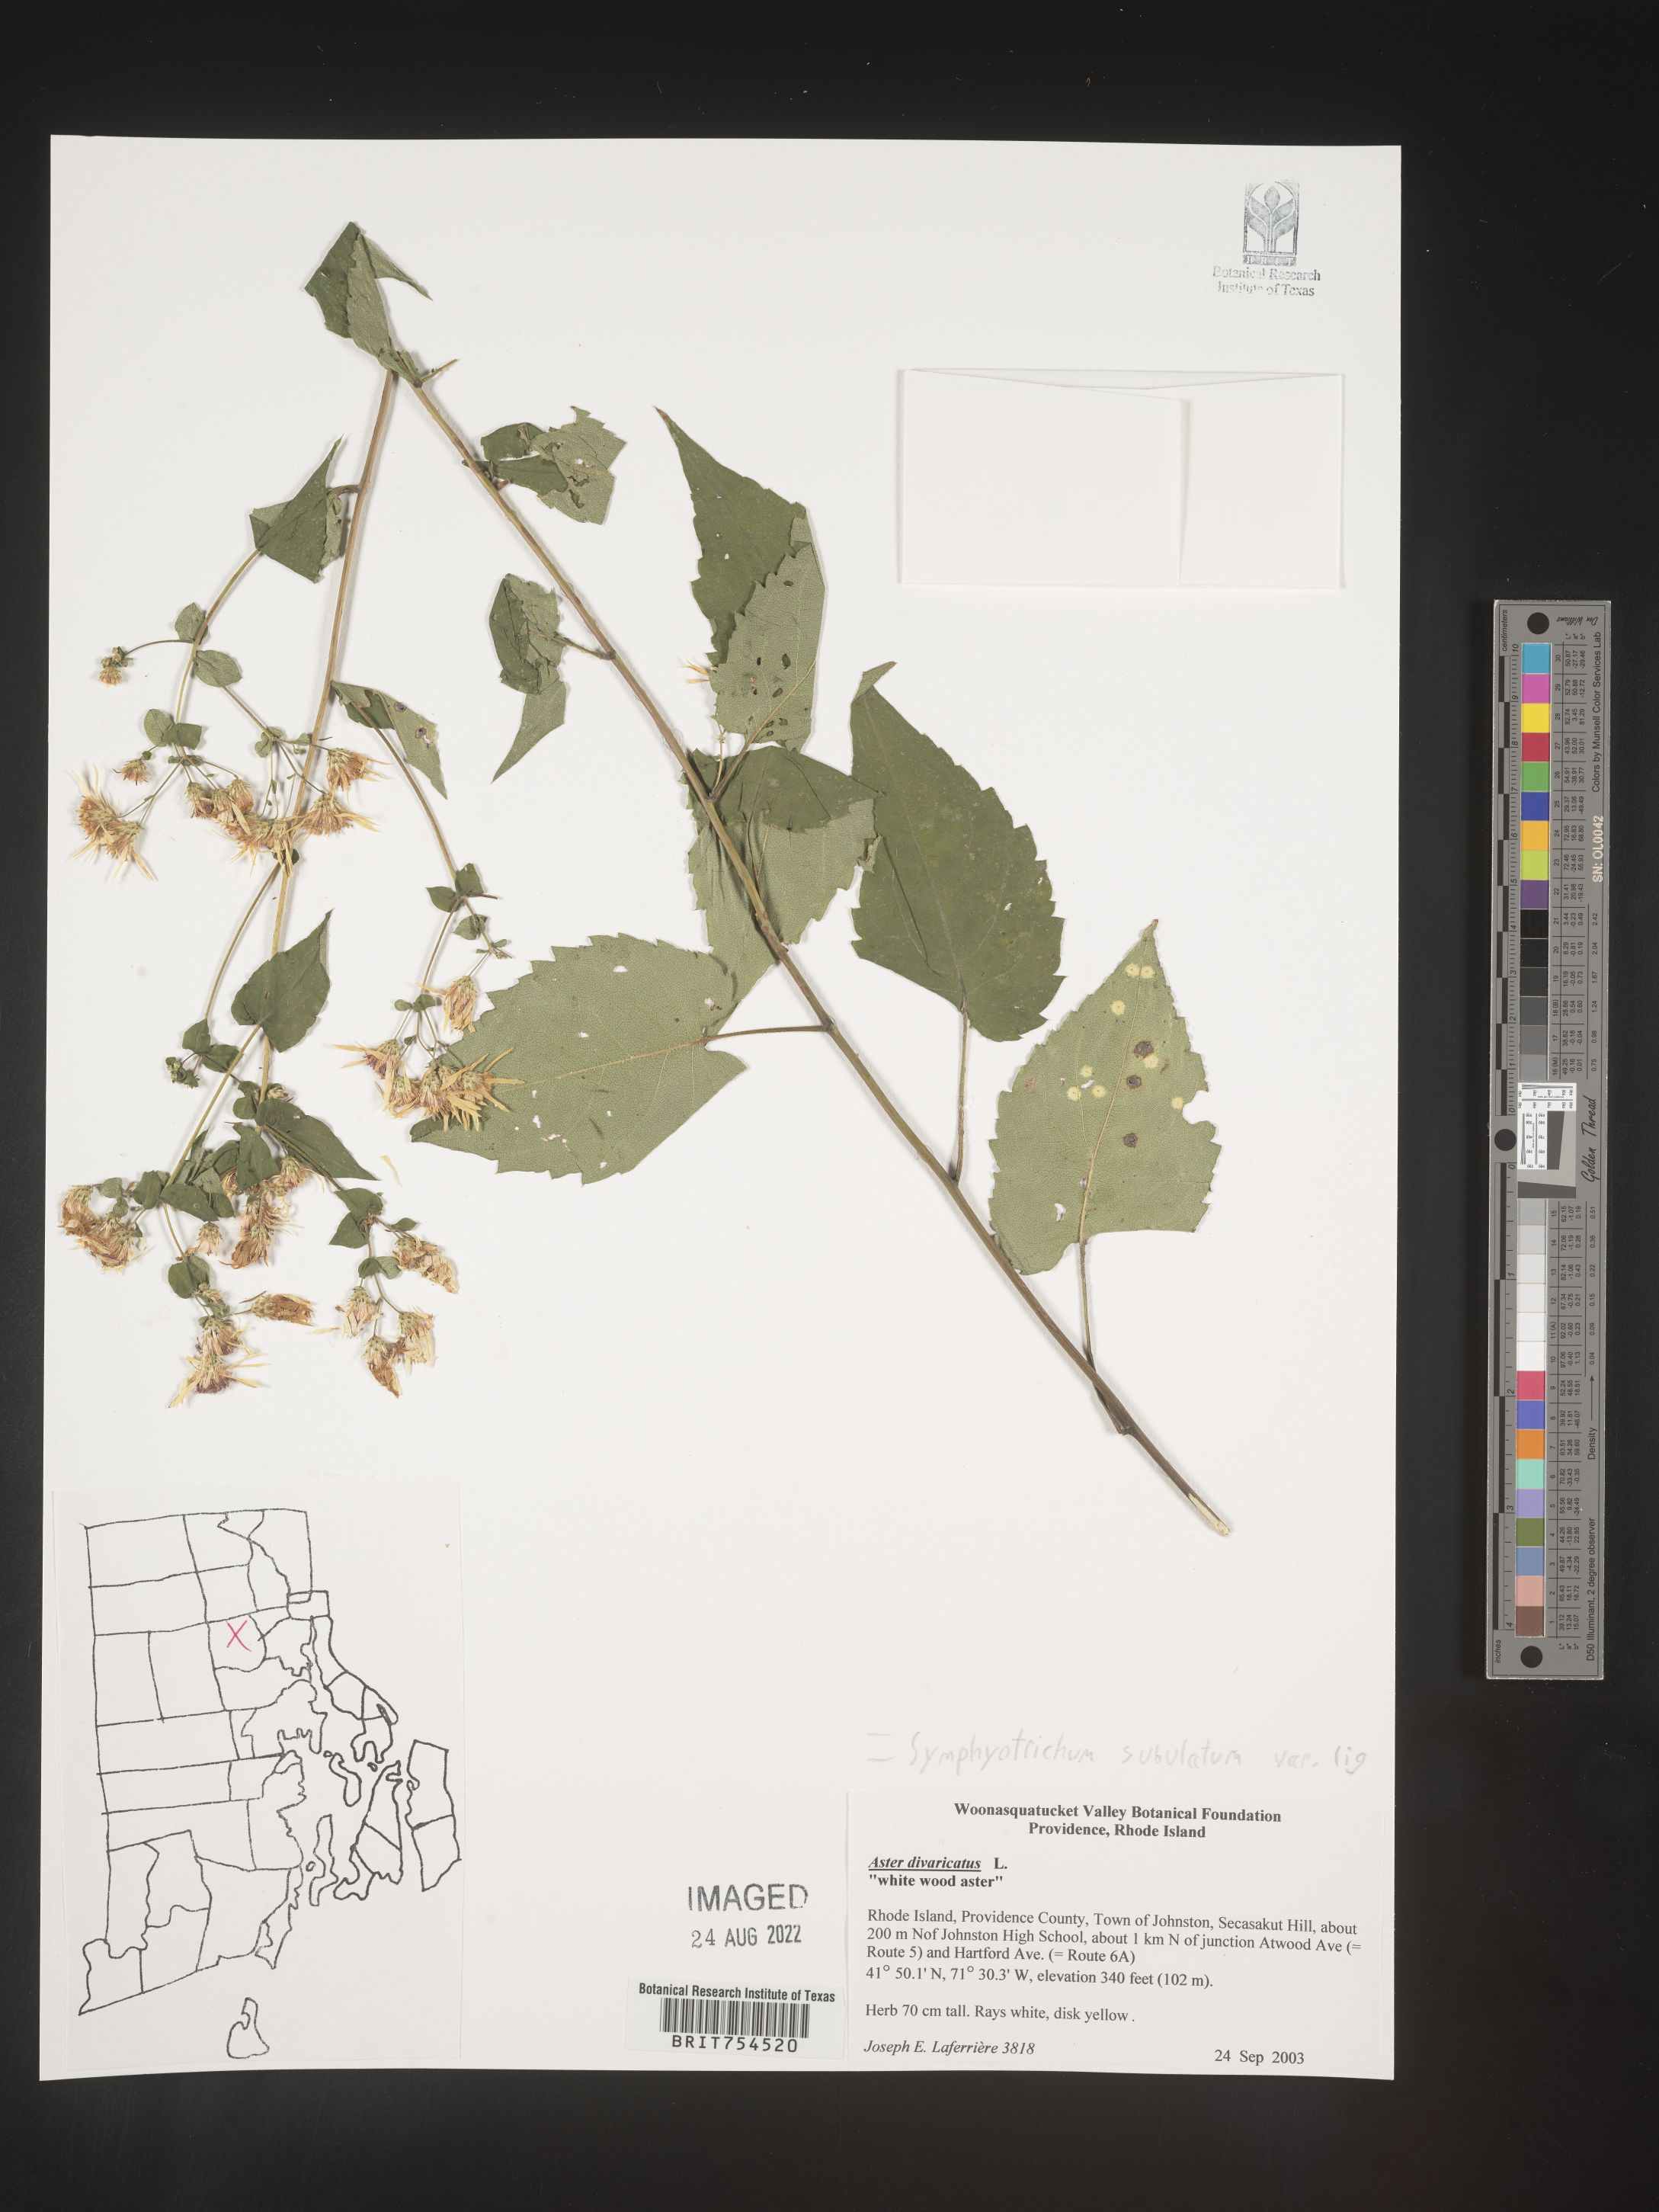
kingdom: Plantae
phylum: Tracheophyta
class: Magnoliopsida
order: Asterales
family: Asteraceae
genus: Symphyotrichum
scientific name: Symphyotrichum subulatum
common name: Annual saltmarsh aster
